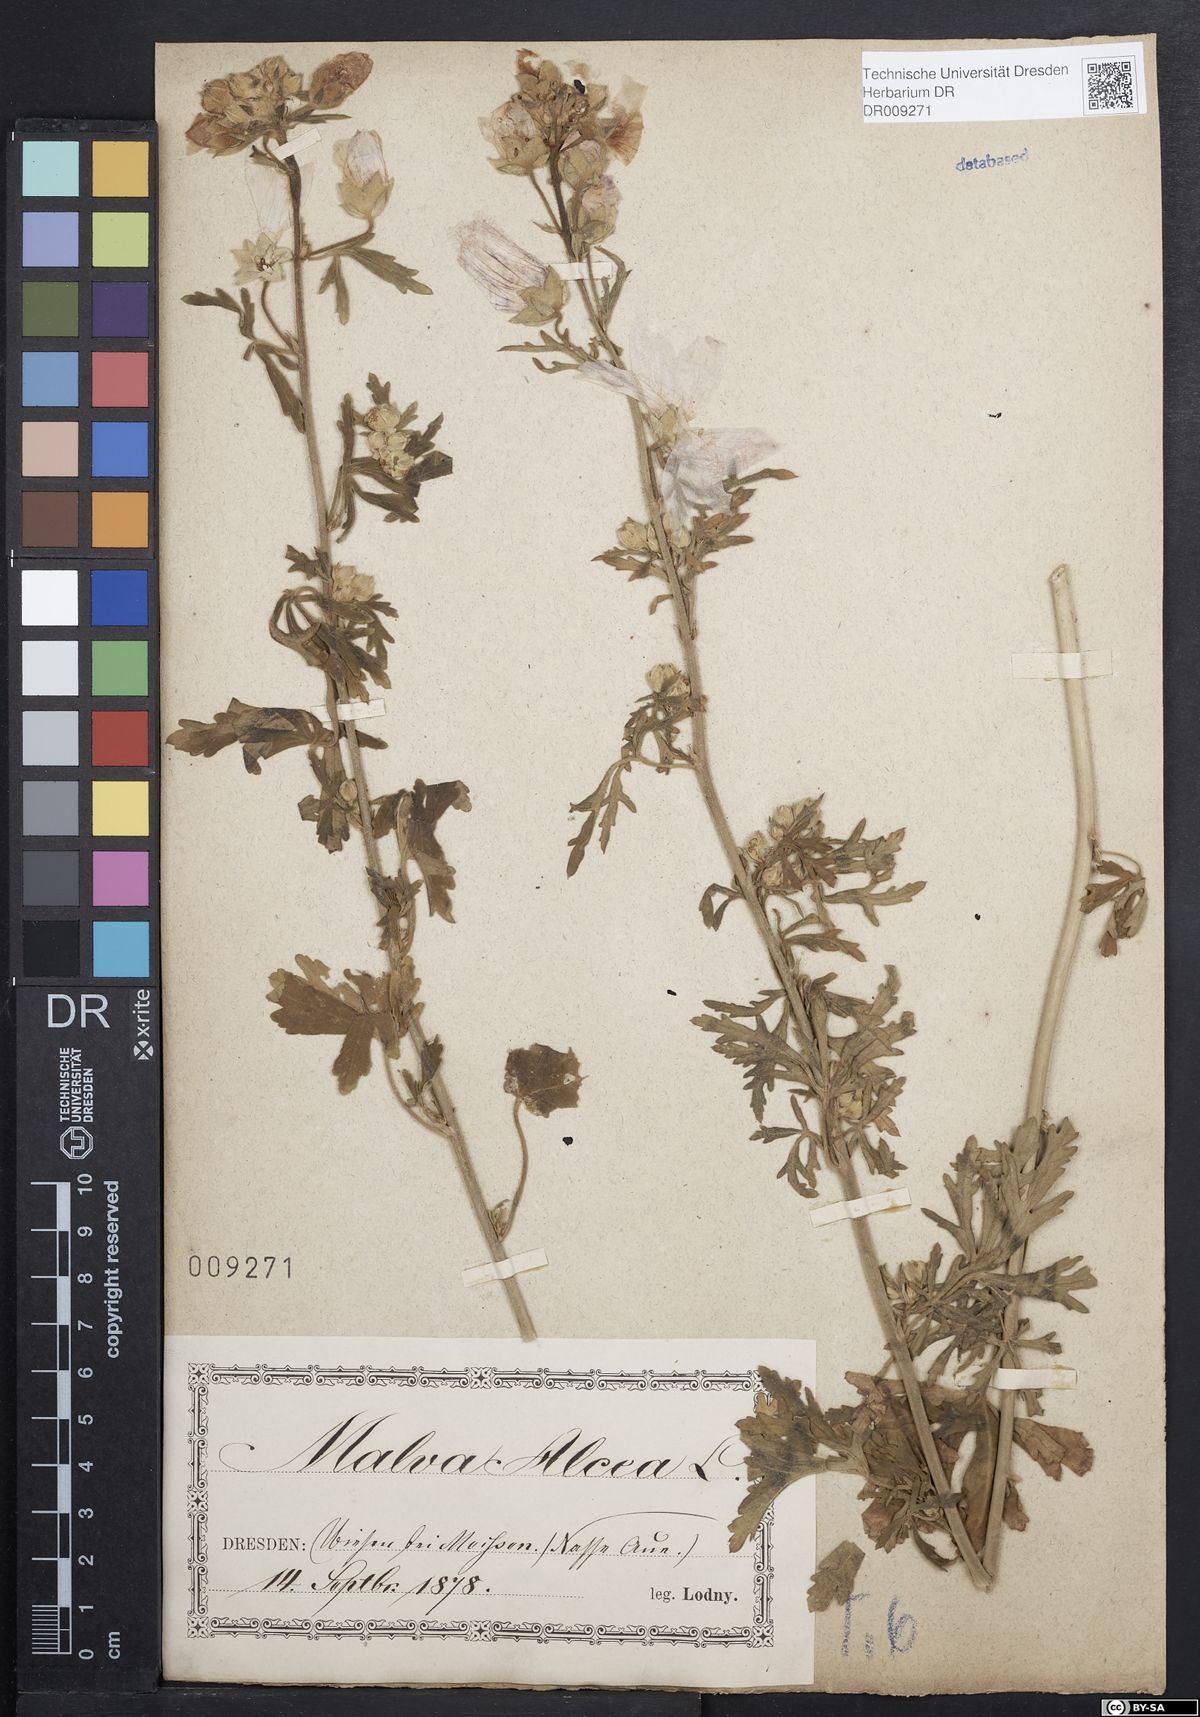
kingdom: Plantae
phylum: Tracheophyta
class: Magnoliopsida
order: Malvales
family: Malvaceae
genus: Malva
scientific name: Malva alcea
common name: Greater musk-mallow
